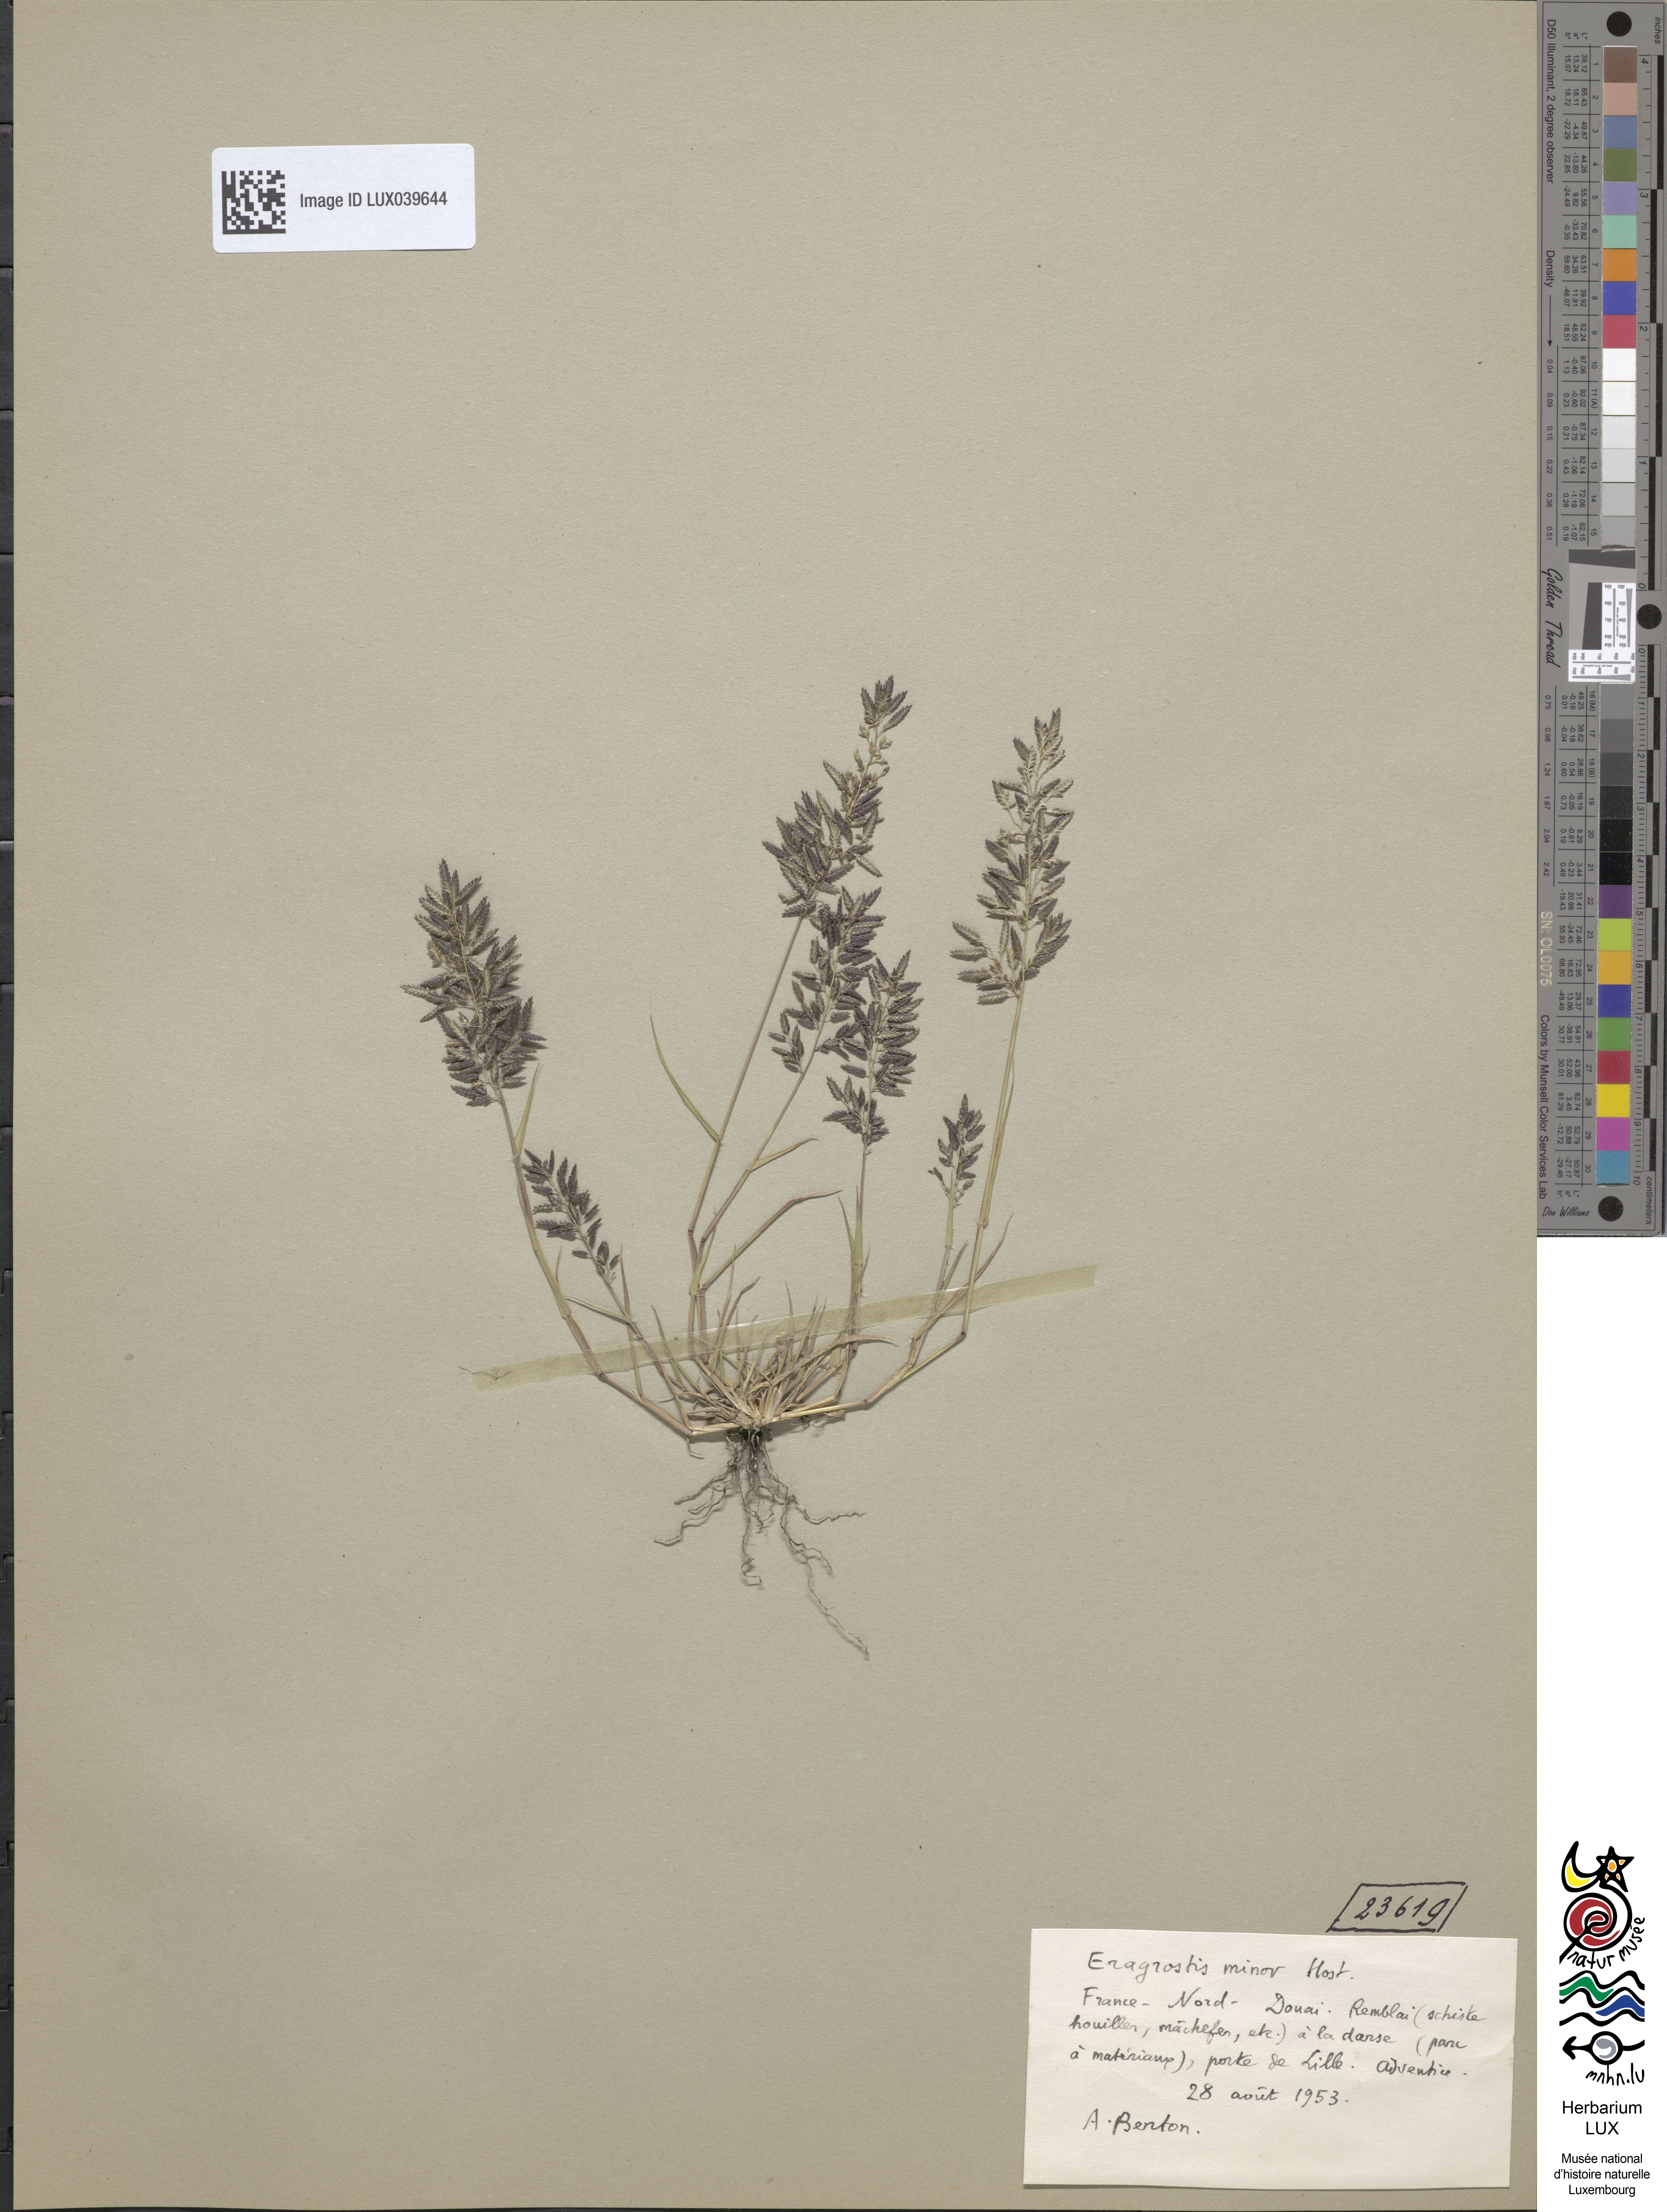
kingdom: Plantae
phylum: Tracheophyta
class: Liliopsida
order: Poales
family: Poaceae
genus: Eragrostis
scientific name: Eragrostis minor
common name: Small love-grass
